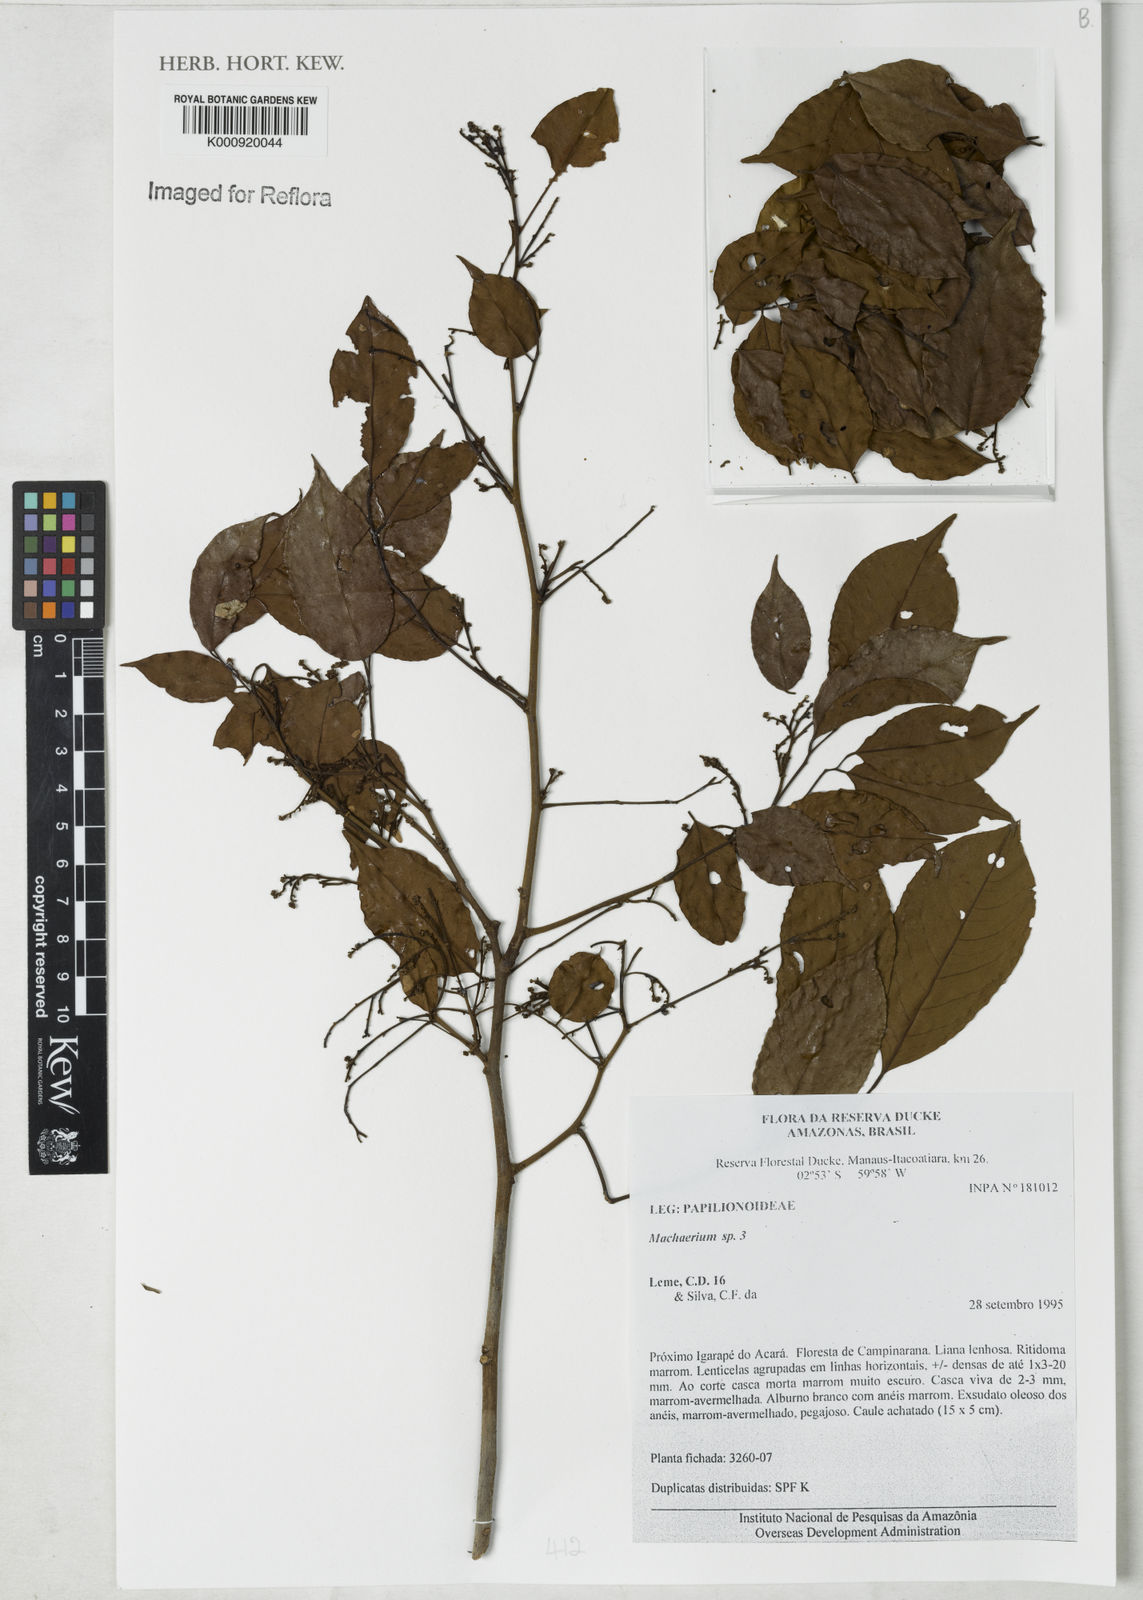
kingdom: Plantae
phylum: Tracheophyta
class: Magnoliopsida
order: Fabales
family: Fabaceae
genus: Machaerium
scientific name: Machaerium
